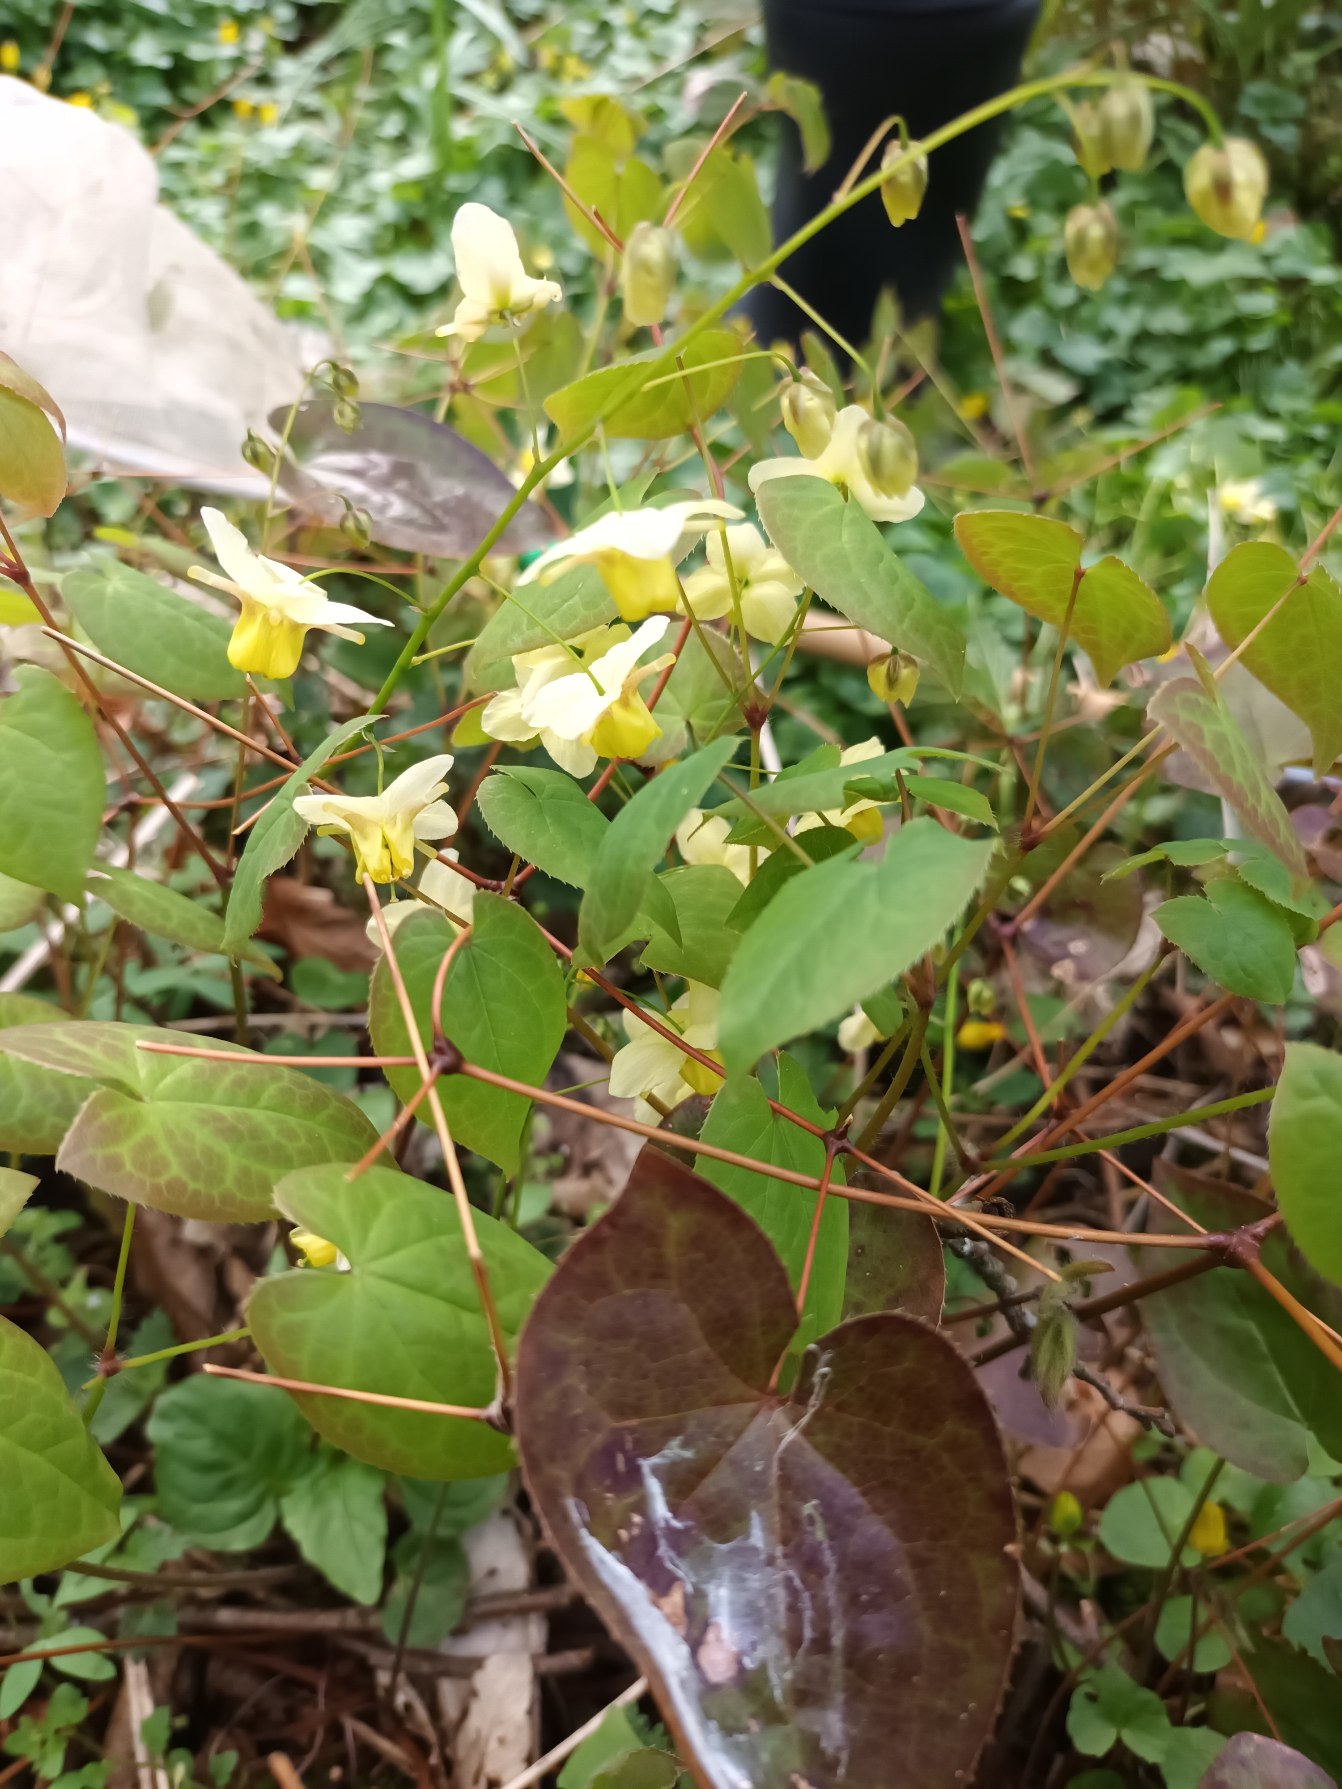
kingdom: Plantae
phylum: Tracheophyta
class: Magnoliopsida
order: Ranunculales
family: Berberidaceae
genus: Epimedium
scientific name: Epimedium versicolor
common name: Svovlgul bispehue
